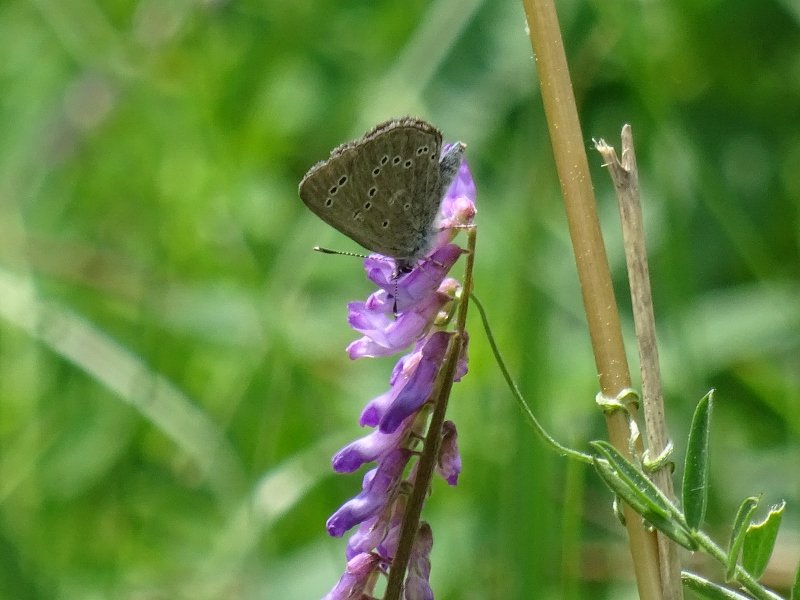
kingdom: Animalia
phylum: Arthropoda
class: Insecta
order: Lepidoptera
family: Lycaenidae
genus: Glaucopsyche
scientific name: Glaucopsyche lygdamus
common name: Silvery Blue
